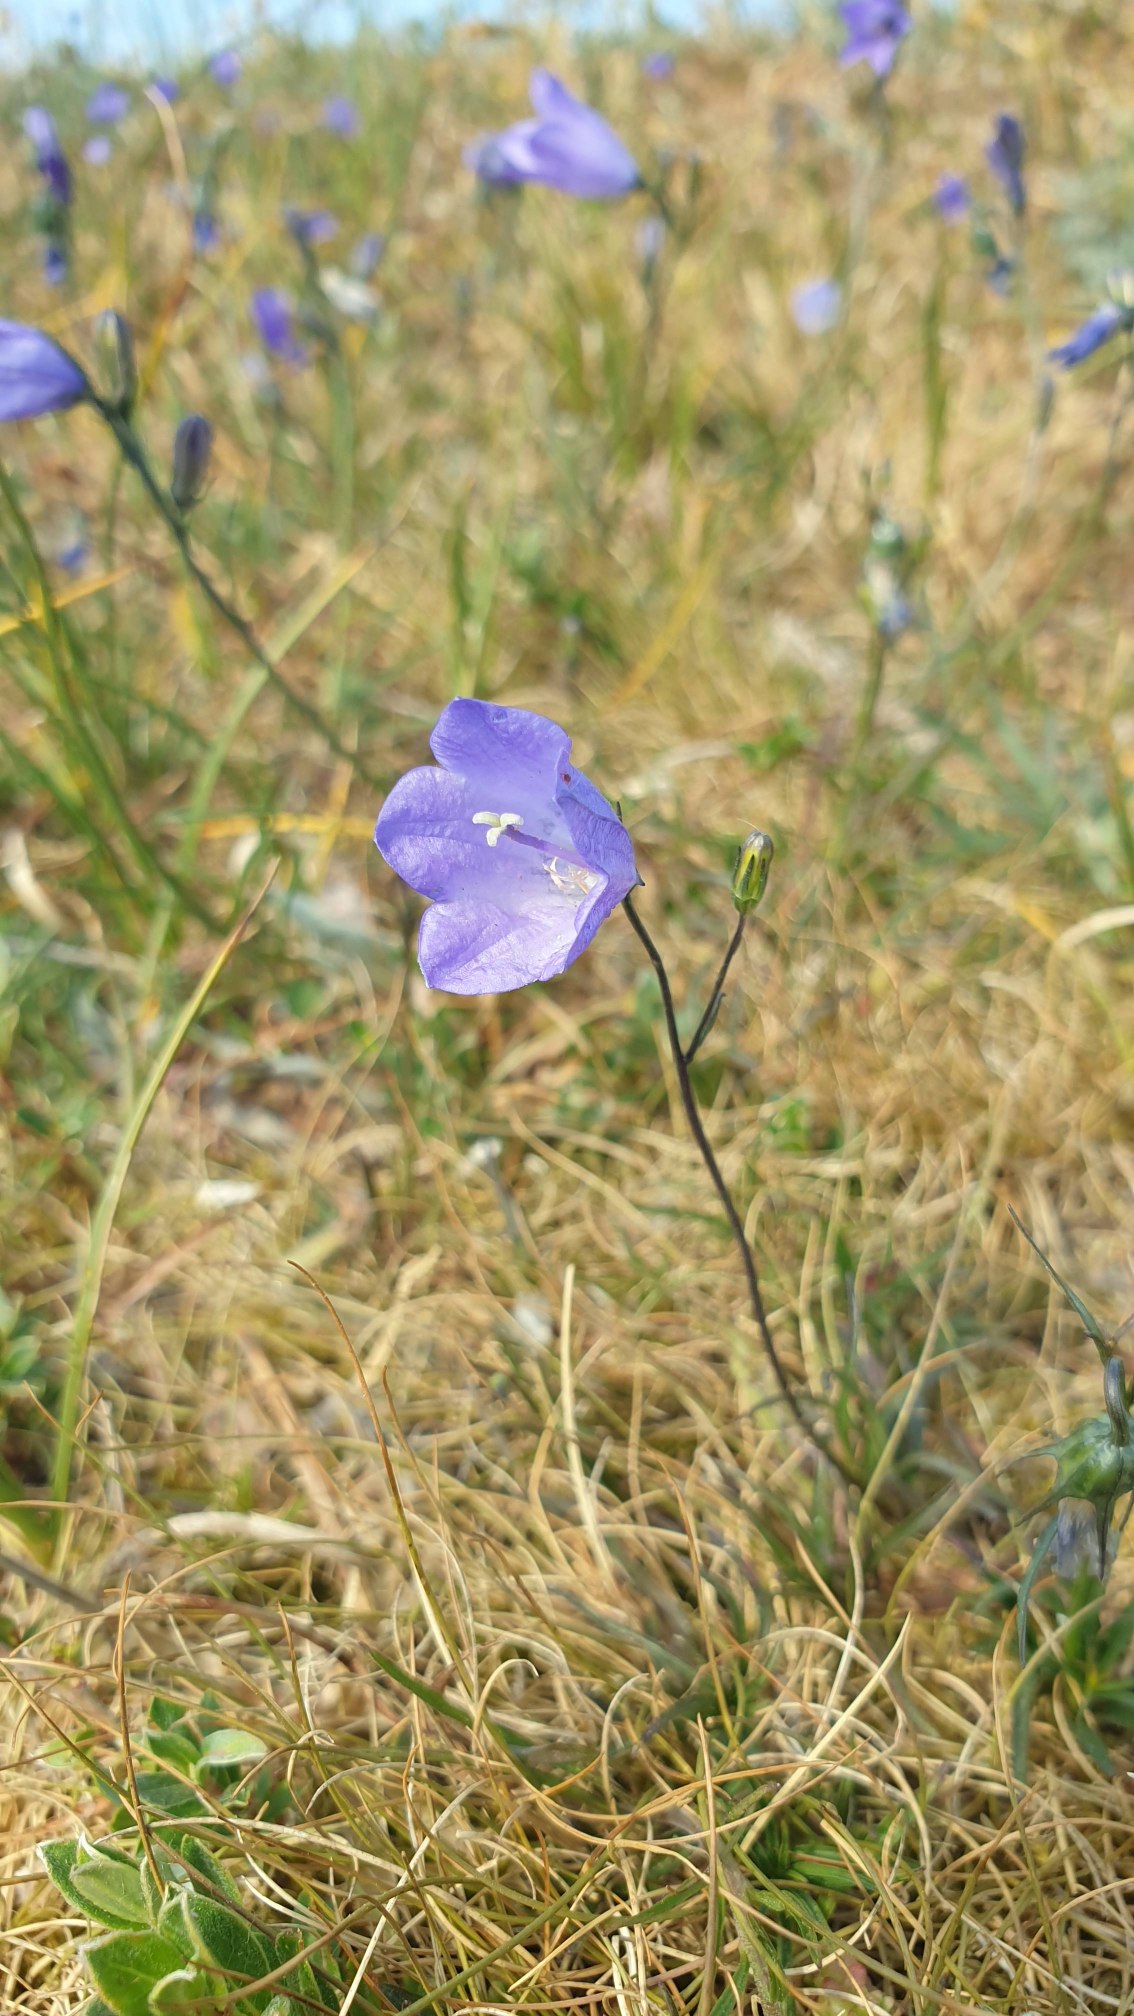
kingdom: Plantae
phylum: Tracheophyta
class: Magnoliopsida
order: Asterales
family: Campanulaceae
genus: Campanula
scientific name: Campanula rotundifolia
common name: Liden klokke
